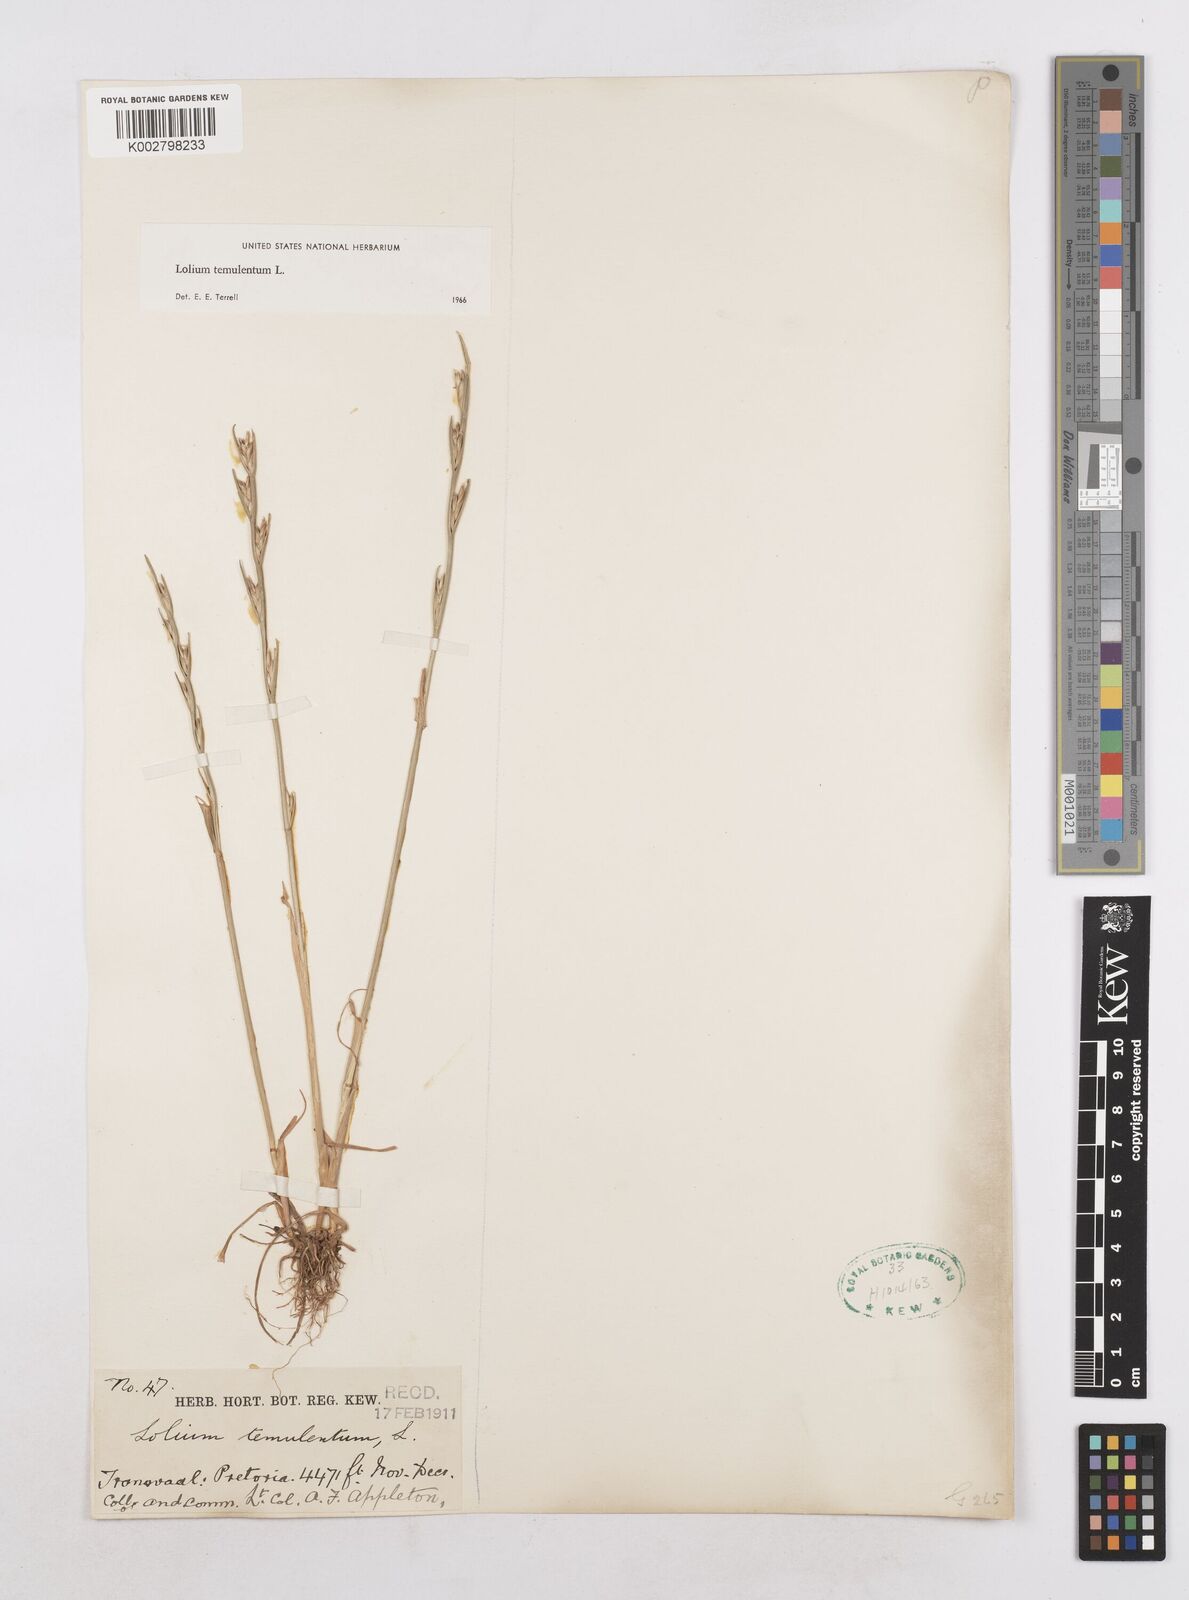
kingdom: Plantae
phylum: Tracheophyta
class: Liliopsida
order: Poales
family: Poaceae
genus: Lolium
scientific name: Lolium temulentum
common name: Darnel
